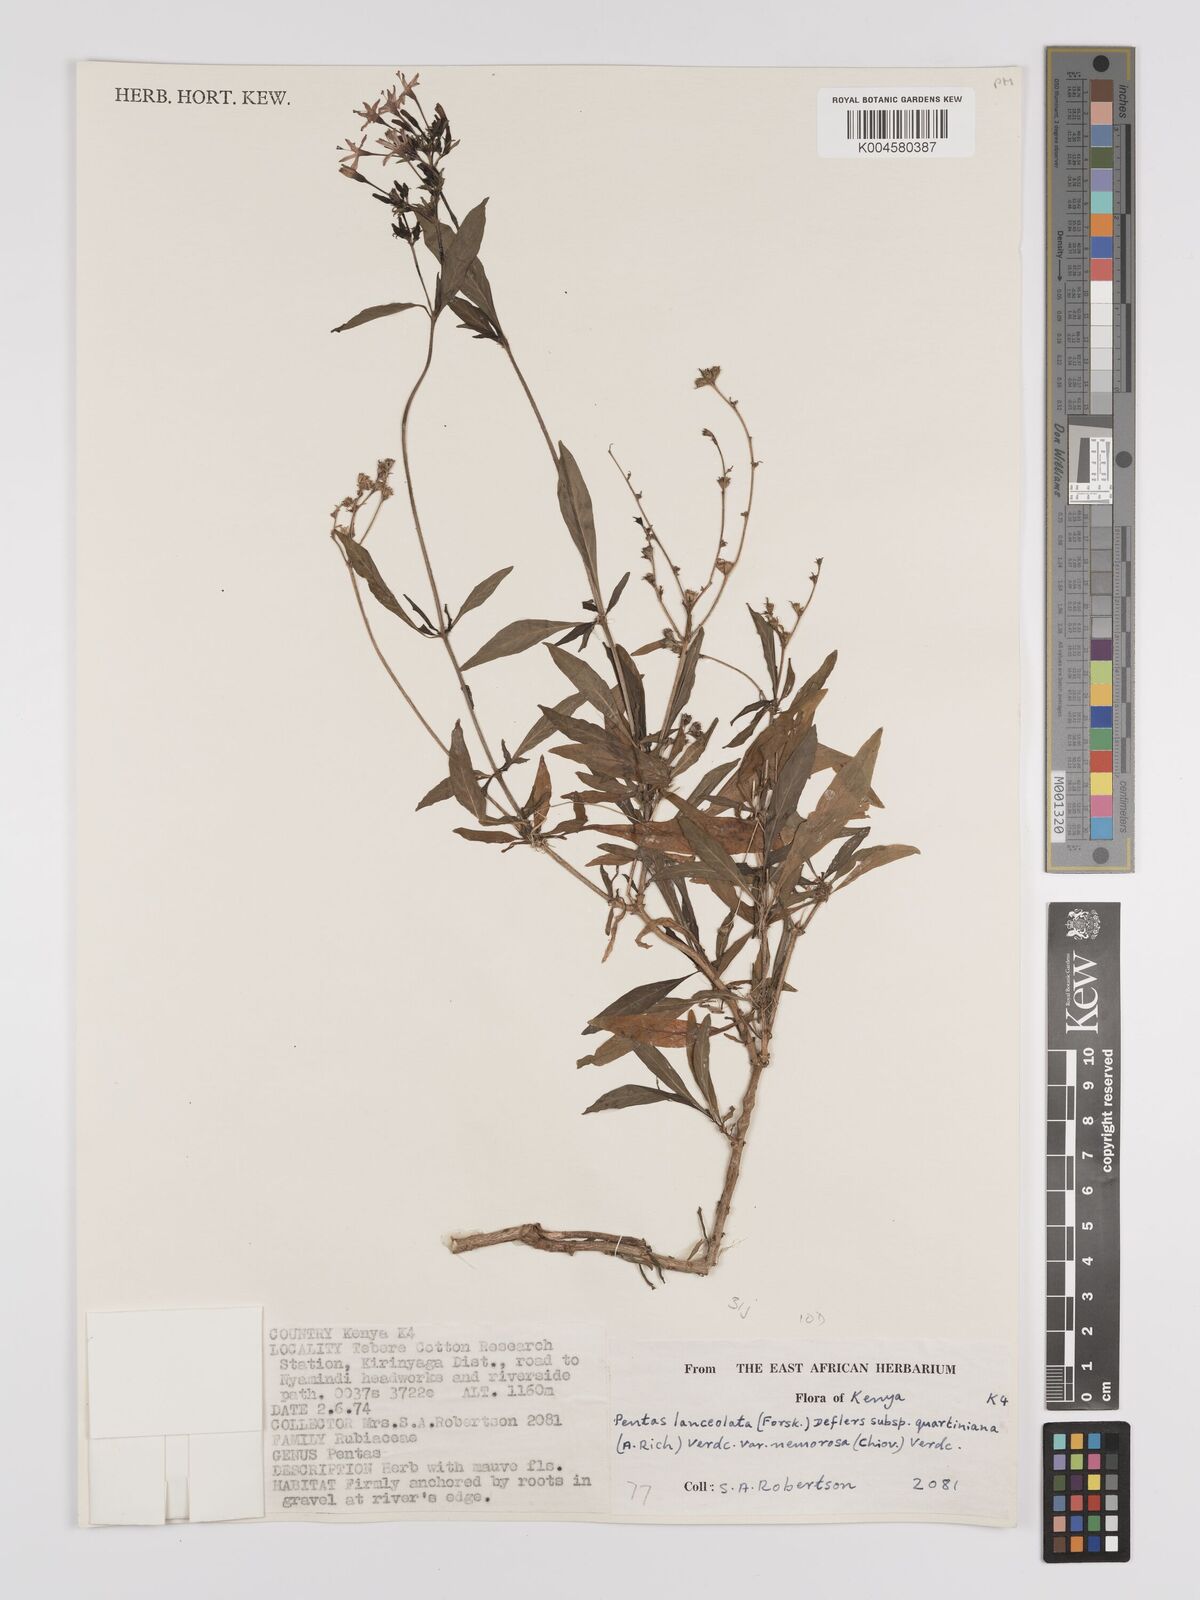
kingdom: Plantae
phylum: Tracheophyta
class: Magnoliopsida
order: Gentianales
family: Rubiaceae
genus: Pentas
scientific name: Pentas lanceolata
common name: Egyptian starcluster
